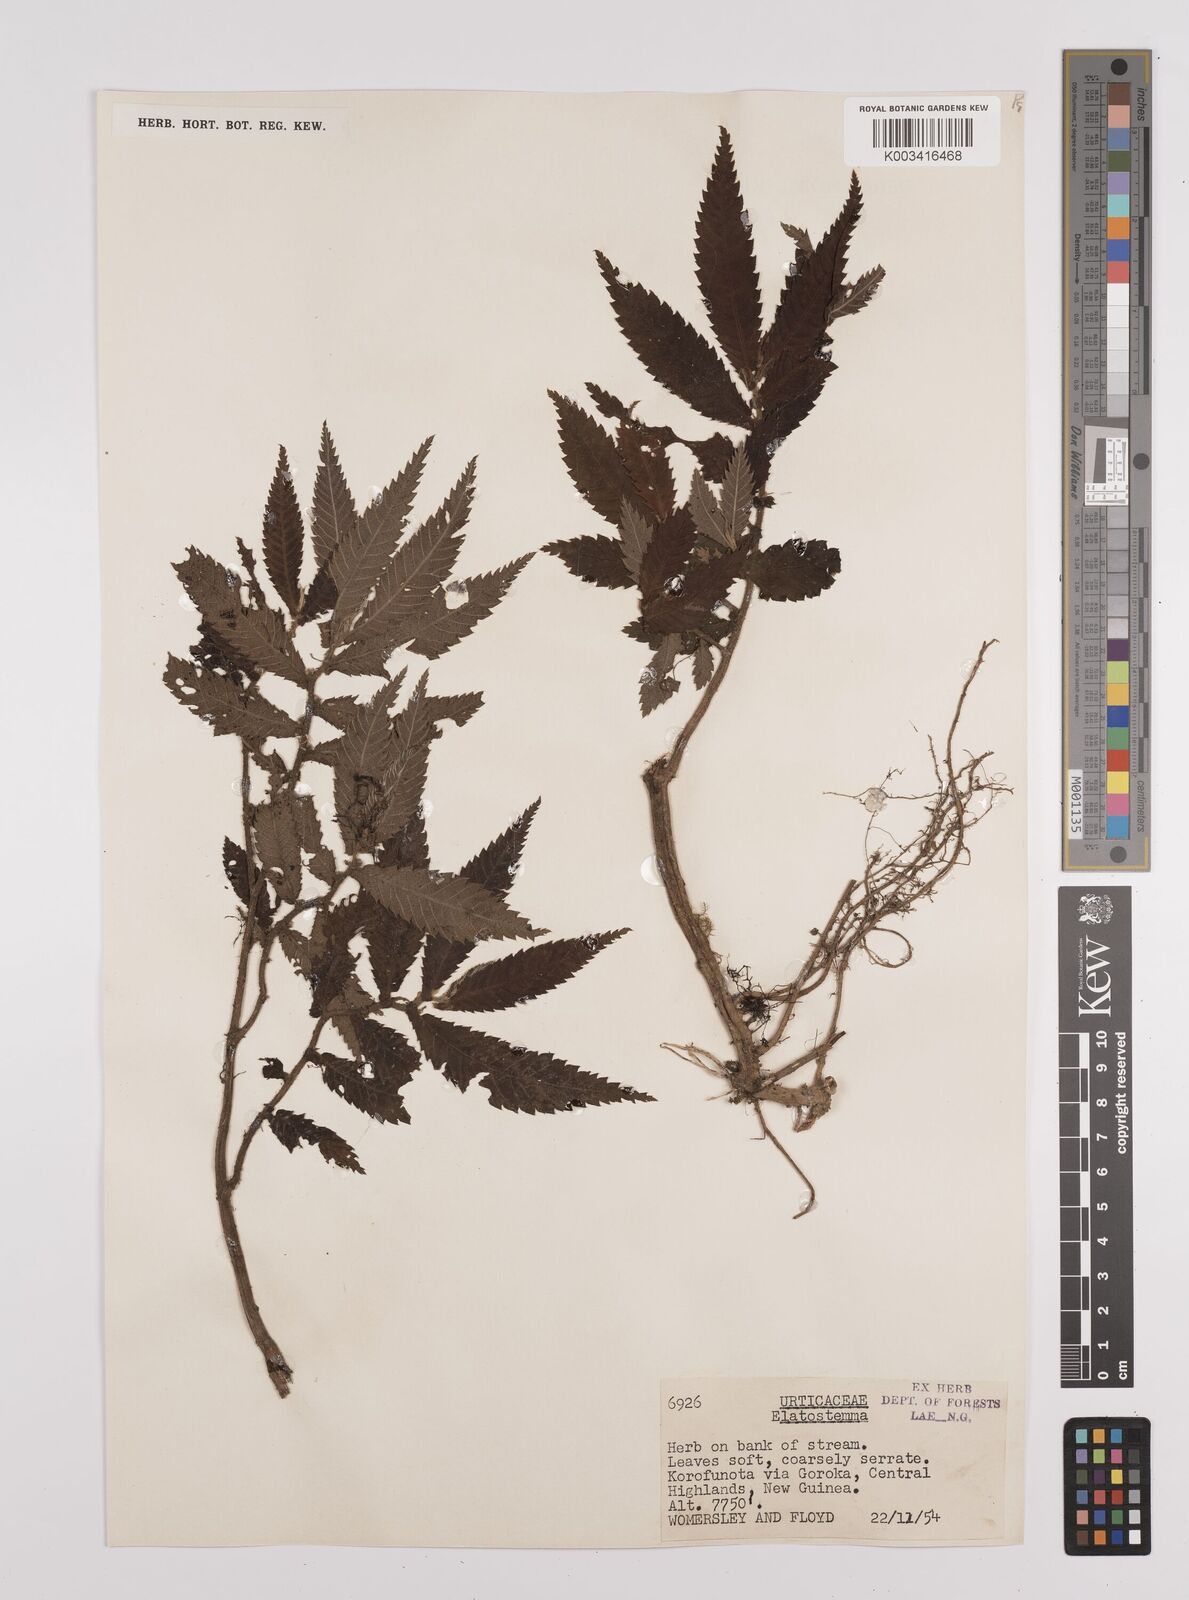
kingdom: Plantae
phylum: Tracheophyta
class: Magnoliopsida
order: Rosales
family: Urticaceae
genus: Elatostema
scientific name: Elatostema
